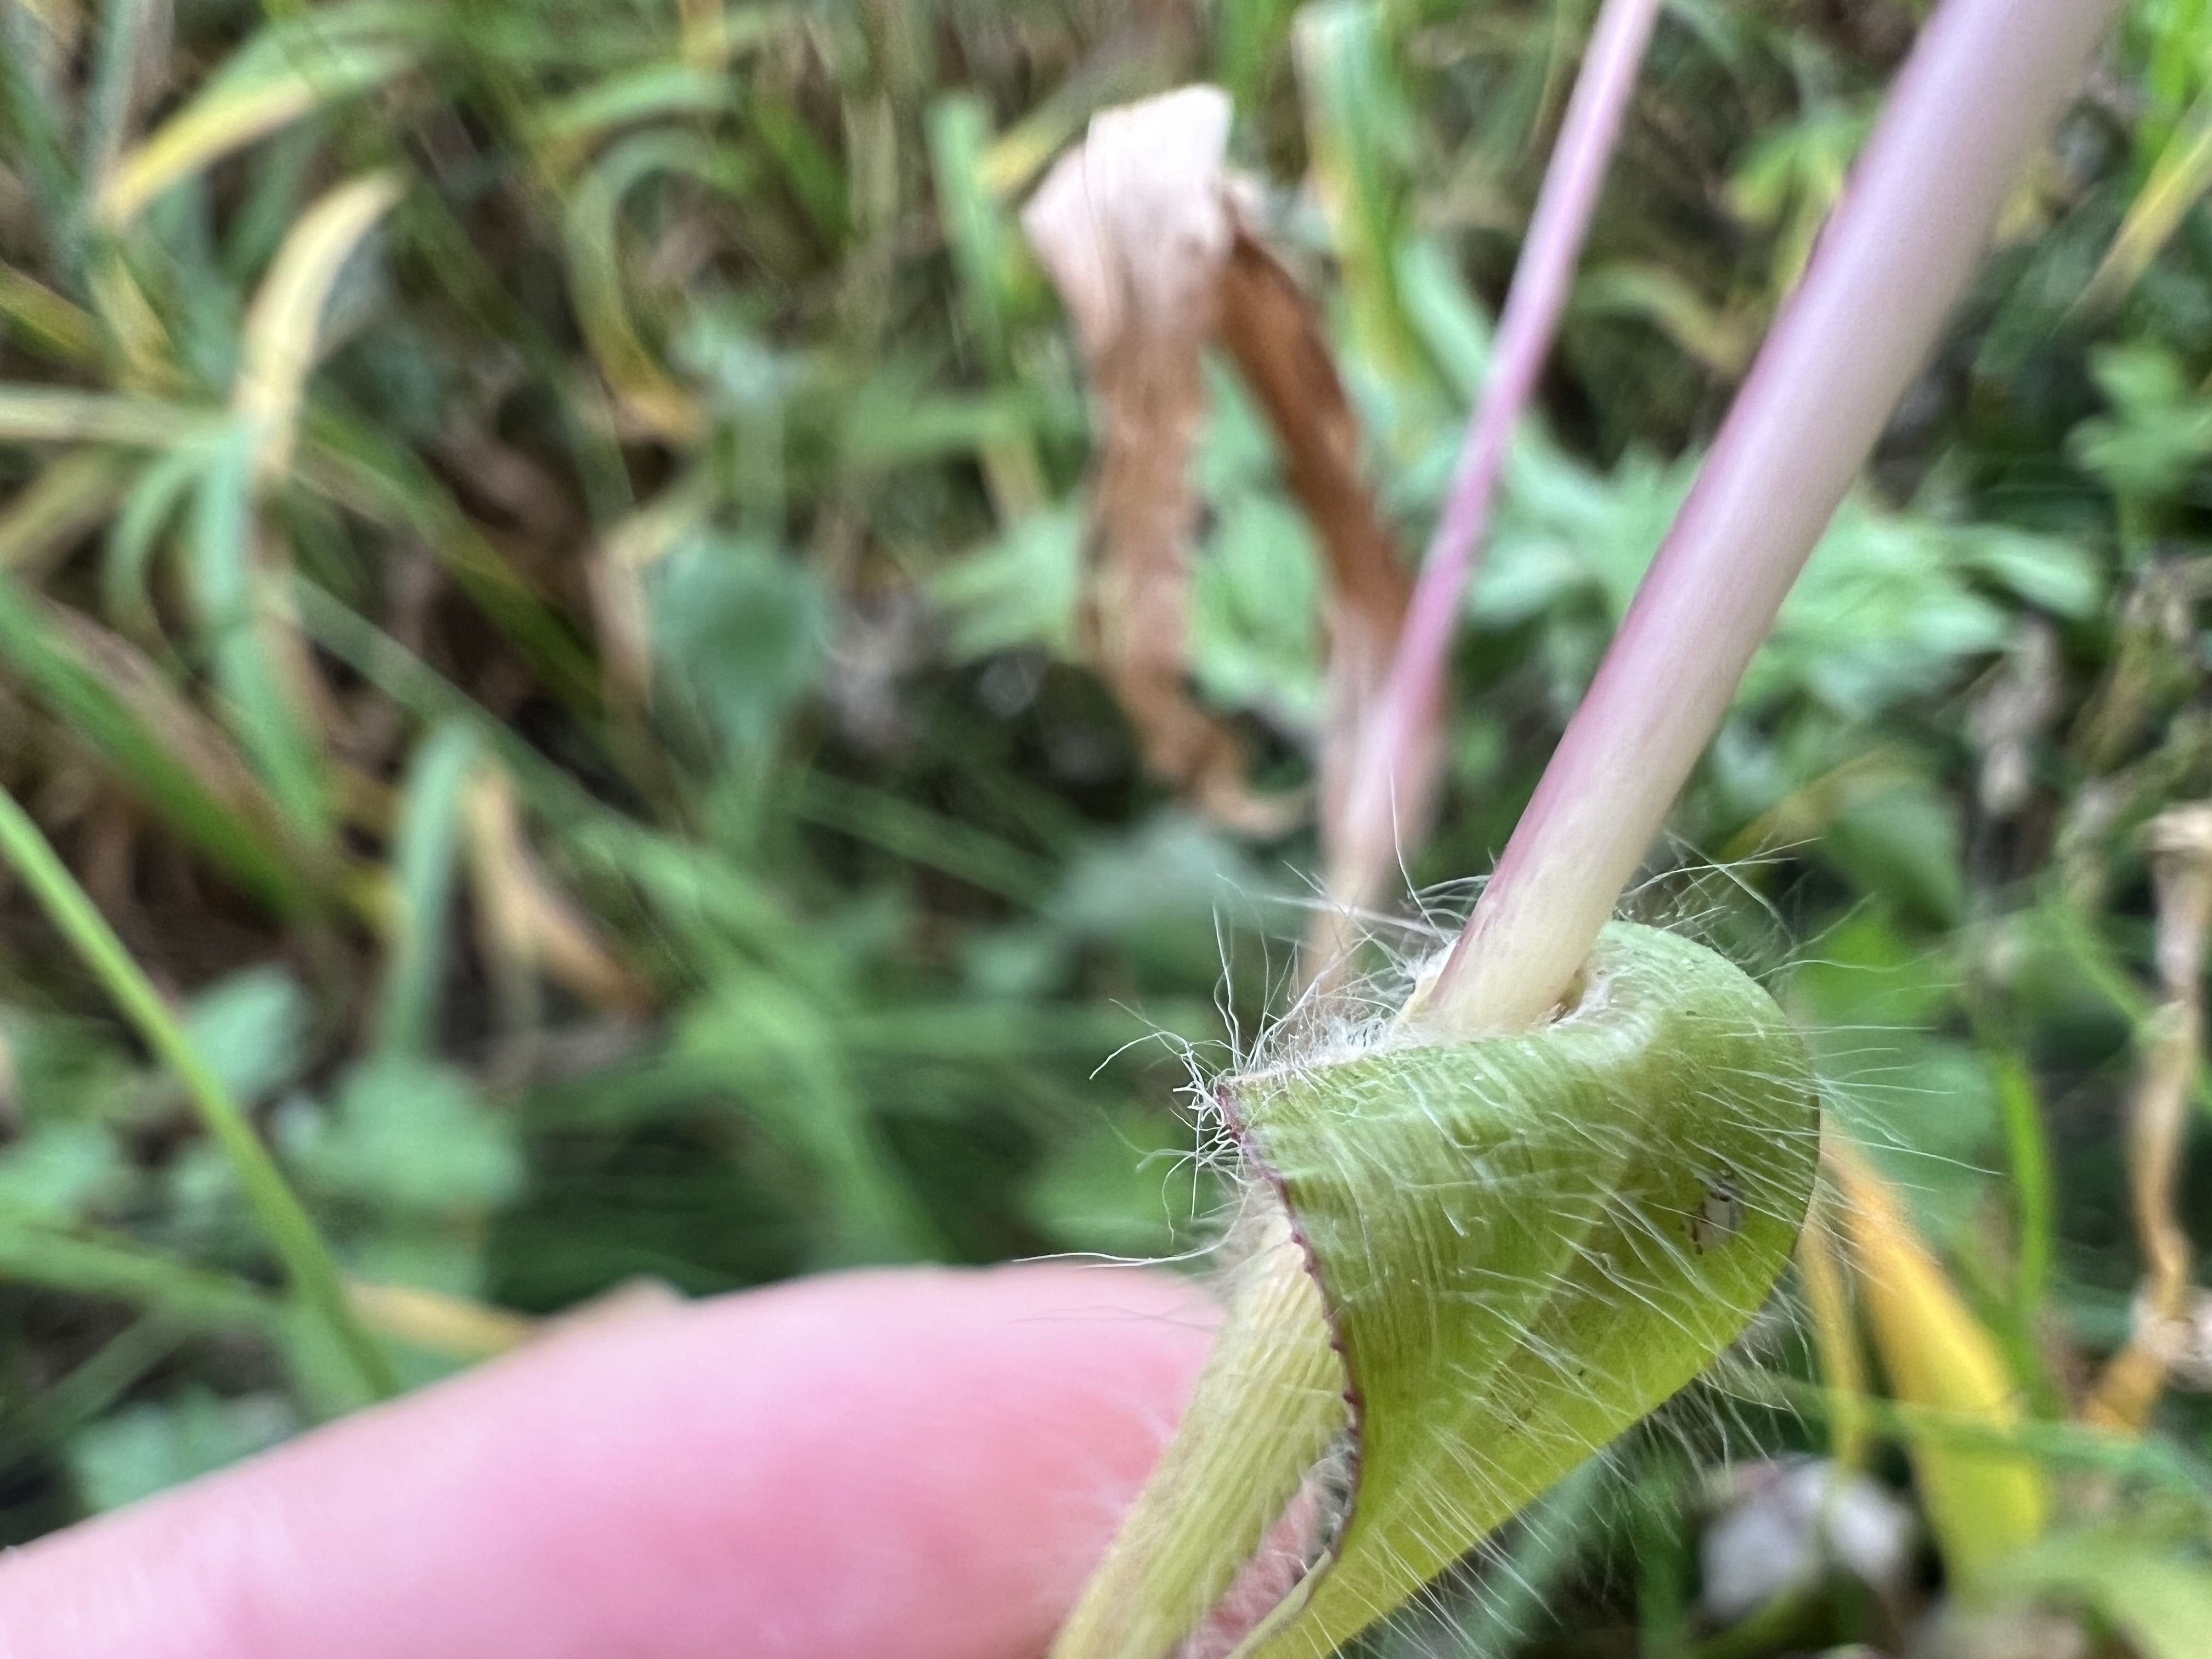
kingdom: Plantae
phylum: Tracheophyta
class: Liliopsida
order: Poales
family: Poaceae
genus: Panicum
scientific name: Panicum miliaceum
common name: Sort hirse
